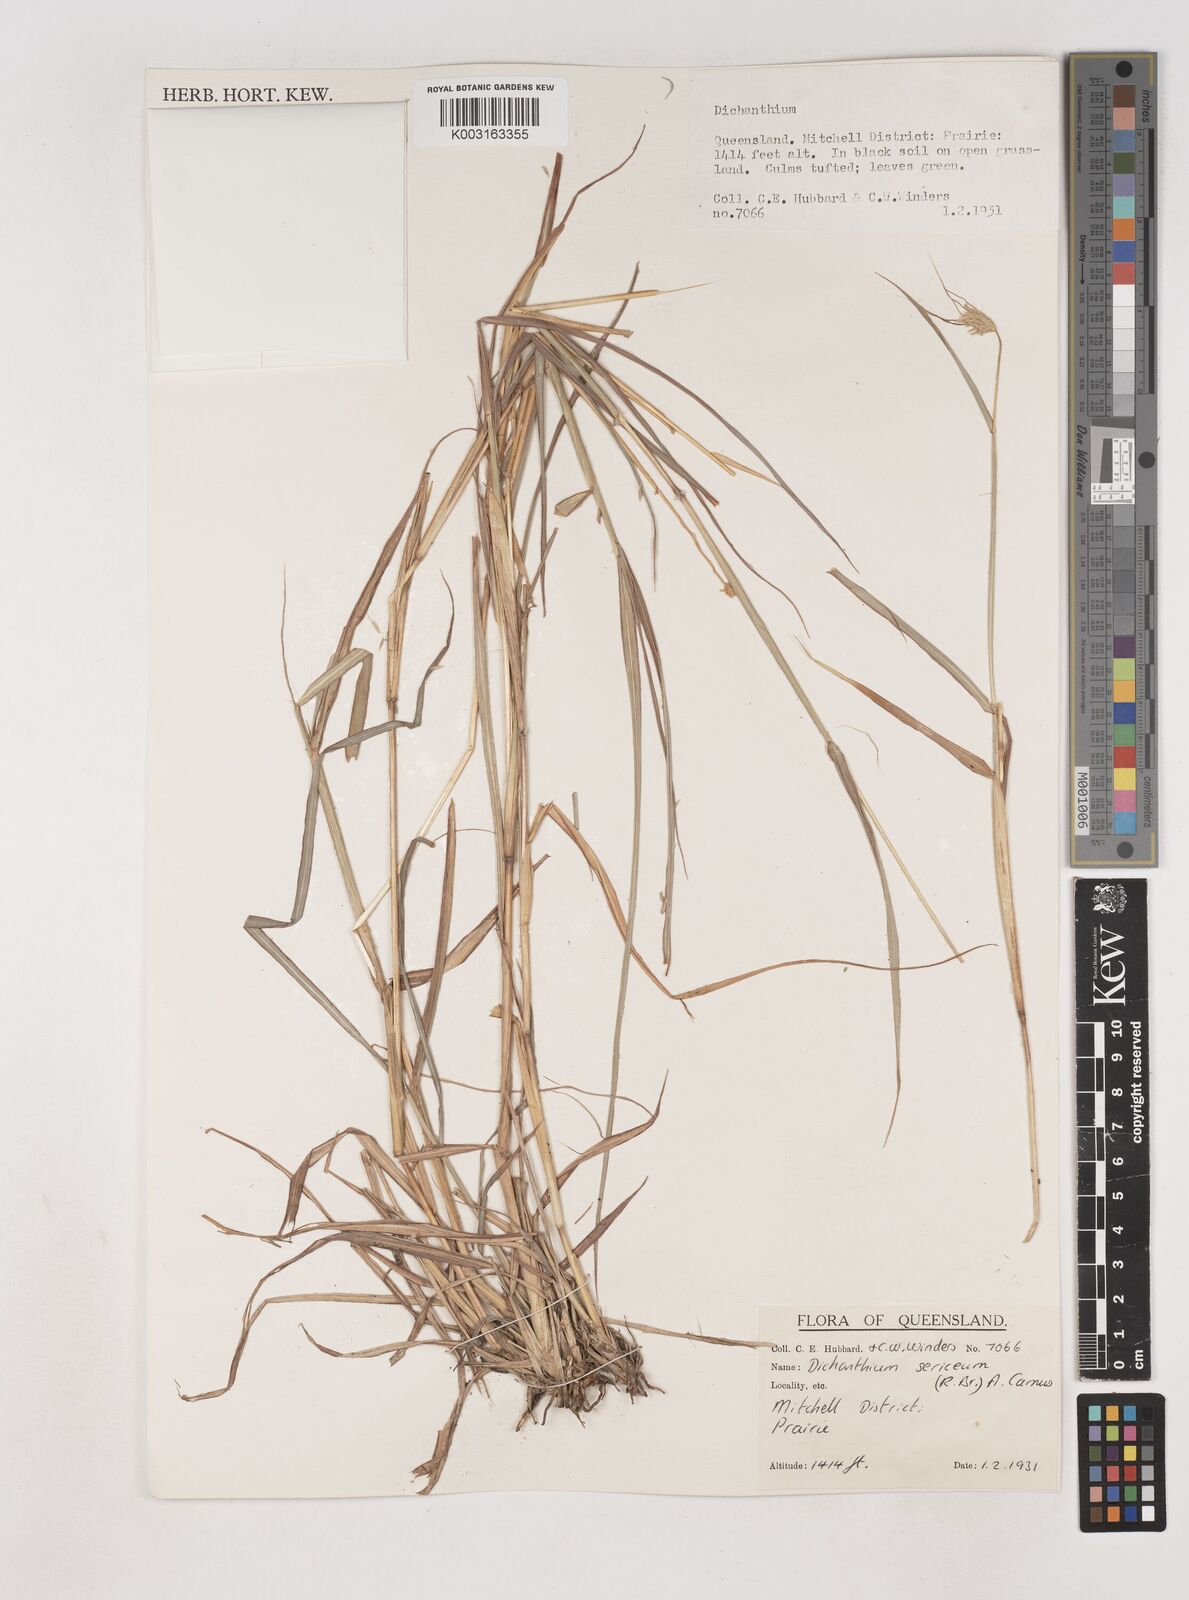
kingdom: Plantae
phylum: Tracheophyta
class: Liliopsida
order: Poales
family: Poaceae
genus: Dichanthium
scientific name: Dichanthium sericeum
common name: Silky bluestem
